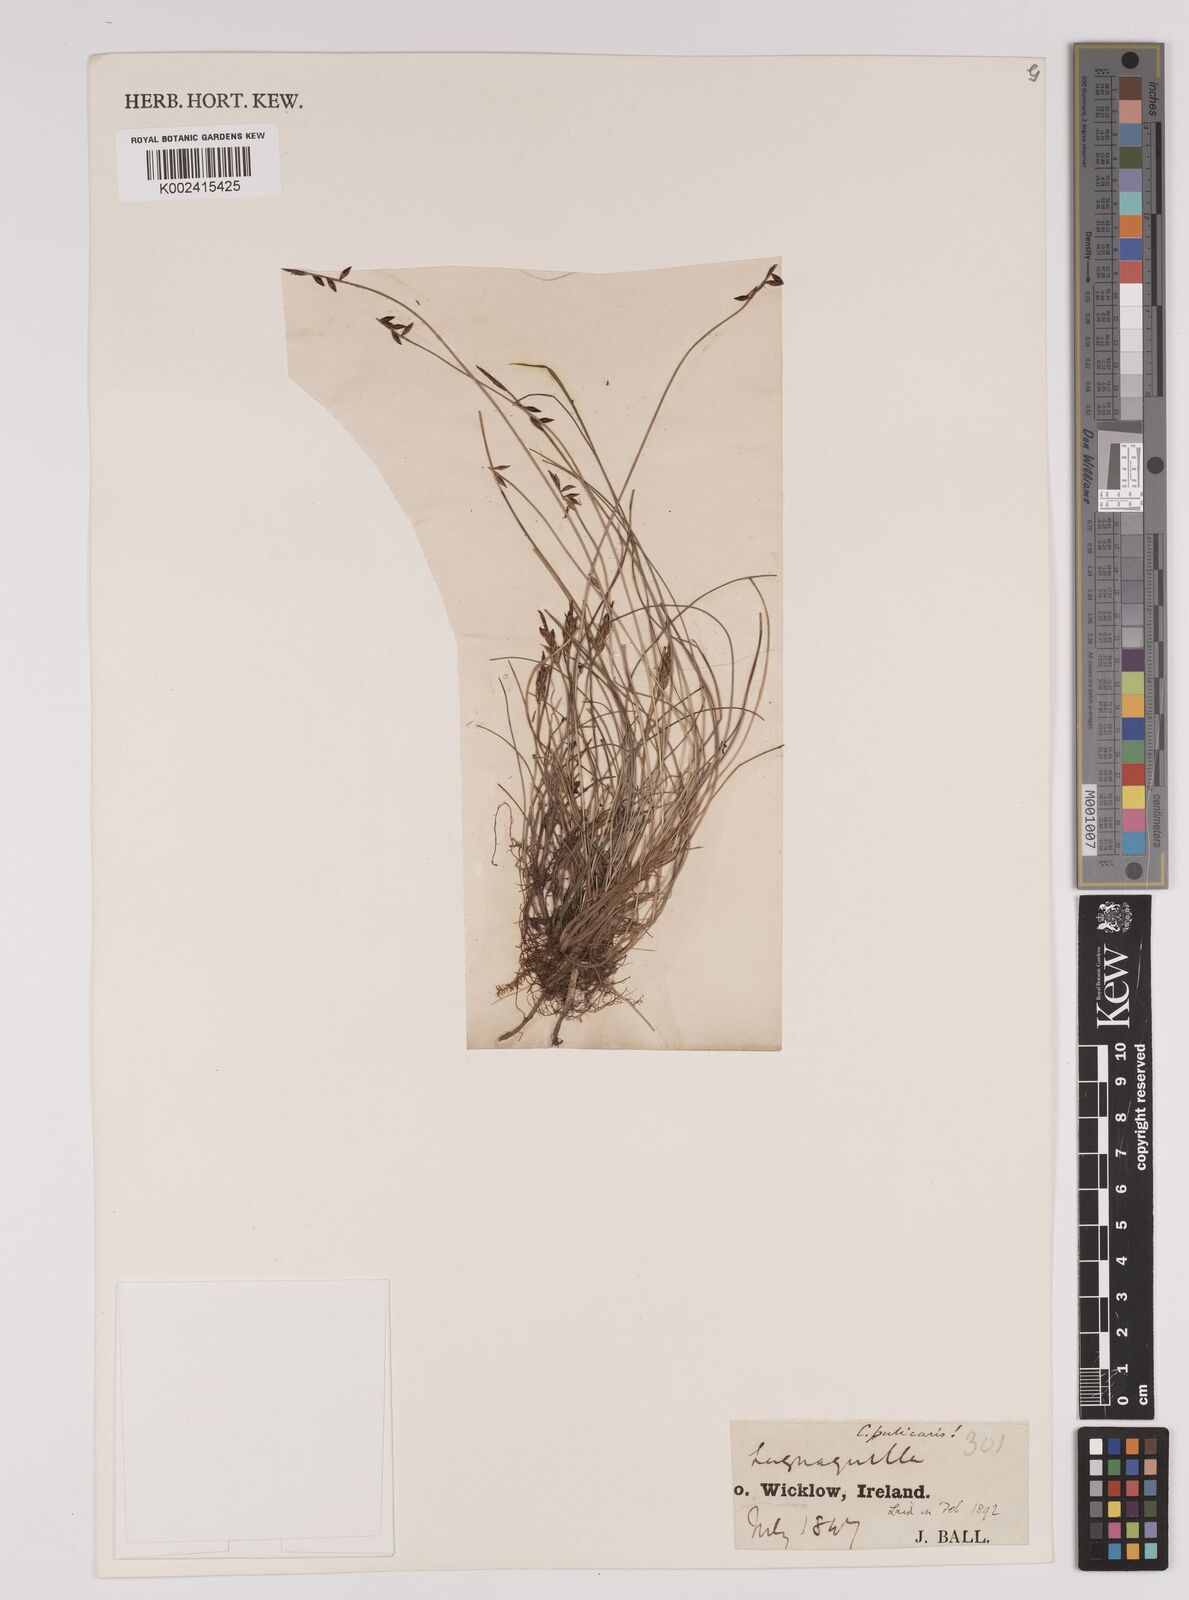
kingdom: Plantae
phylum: Tracheophyta
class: Liliopsida
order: Poales
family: Cyperaceae
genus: Carex
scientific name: Carex pulicaris
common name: Flea sedge
